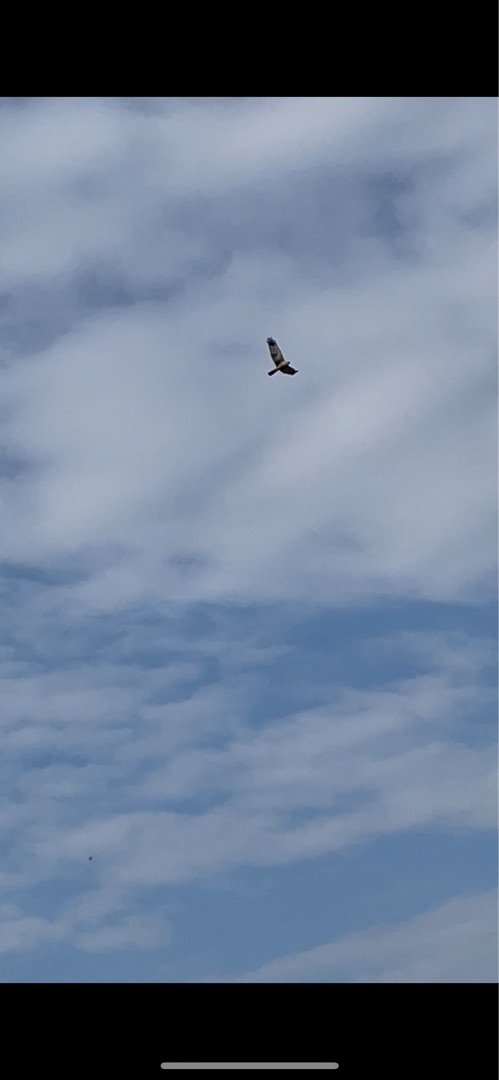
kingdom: Animalia
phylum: Chordata
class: Aves
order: Accipitriformes
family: Accipitridae
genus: Circus
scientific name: Circus aeruginosus
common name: Rørhøg
